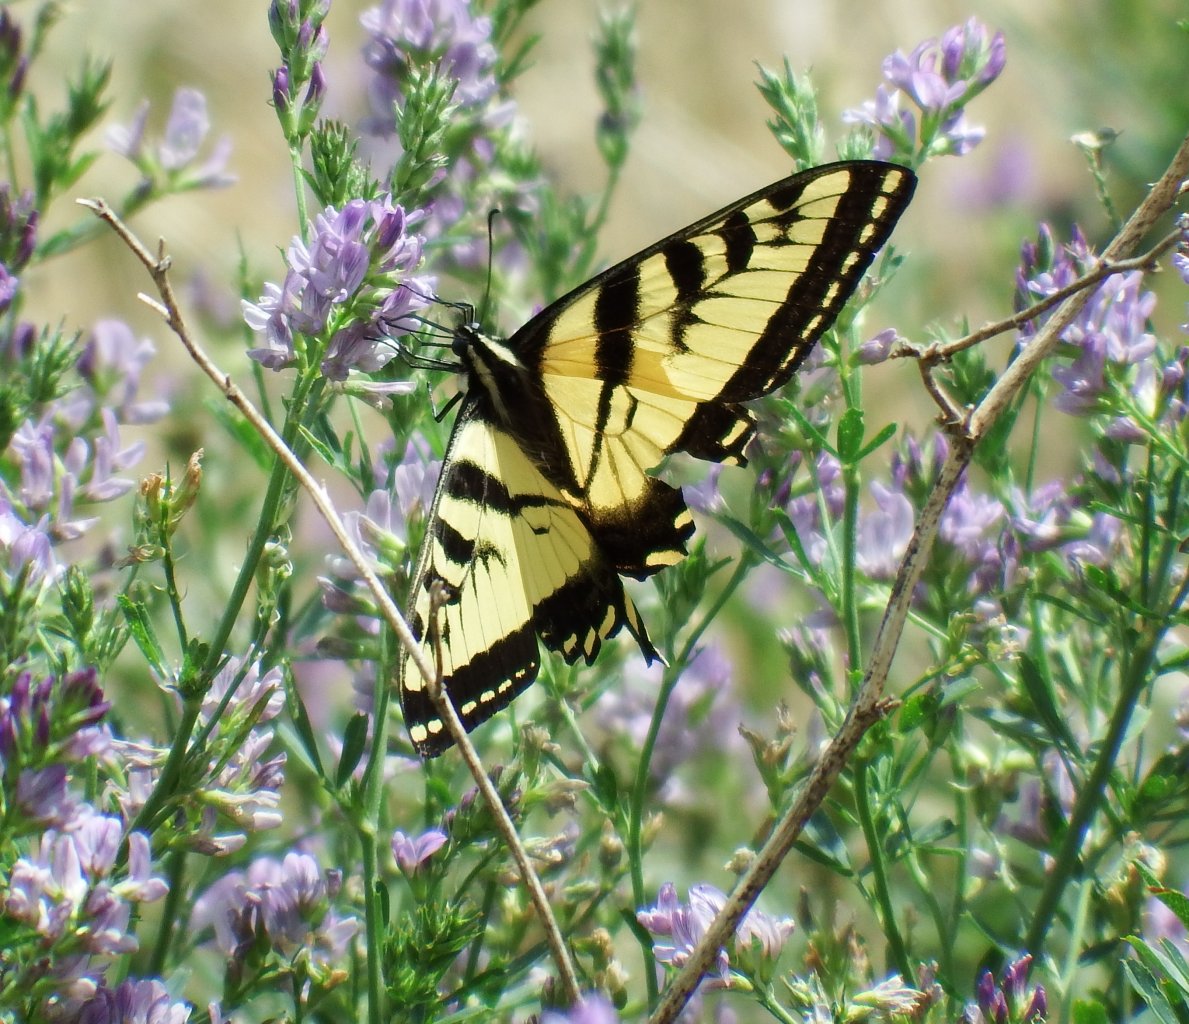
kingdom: Animalia
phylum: Arthropoda
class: Insecta
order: Lepidoptera
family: Papilionidae
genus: Pterourus
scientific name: Pterourus rutulus
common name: Western Tiger Swallowtail
